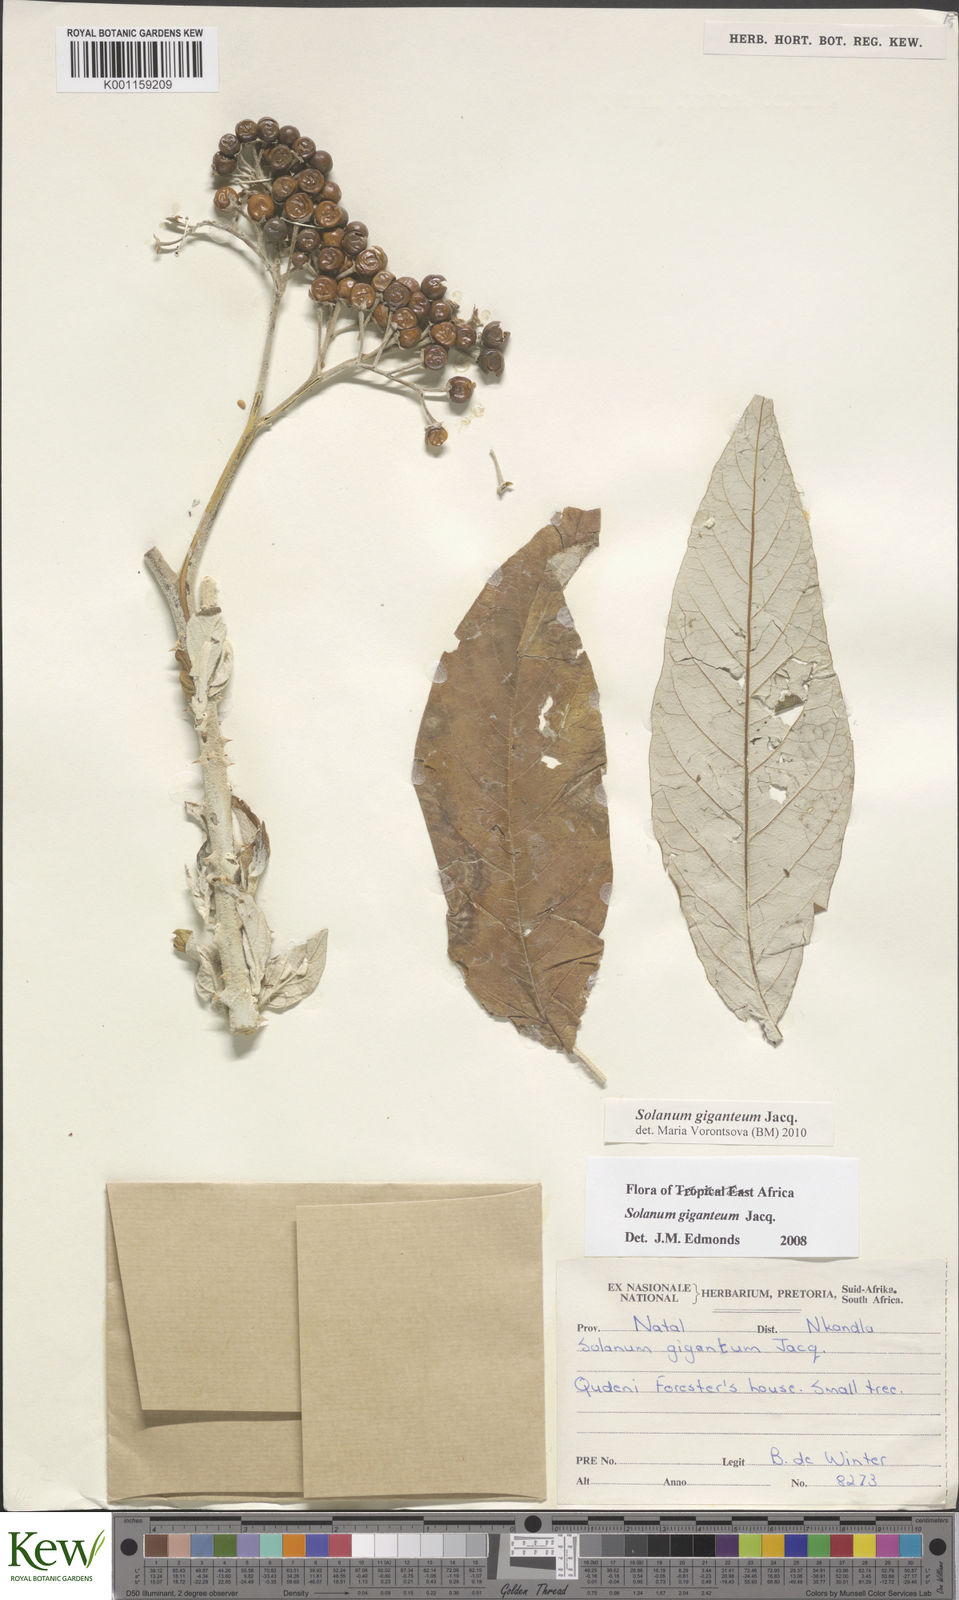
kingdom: Plantae
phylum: Tracheophyta
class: Magnoliopsida
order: Solanales
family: Solanaceae
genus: Solanum
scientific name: Solanum giganteum
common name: Healing-leaf-tree
